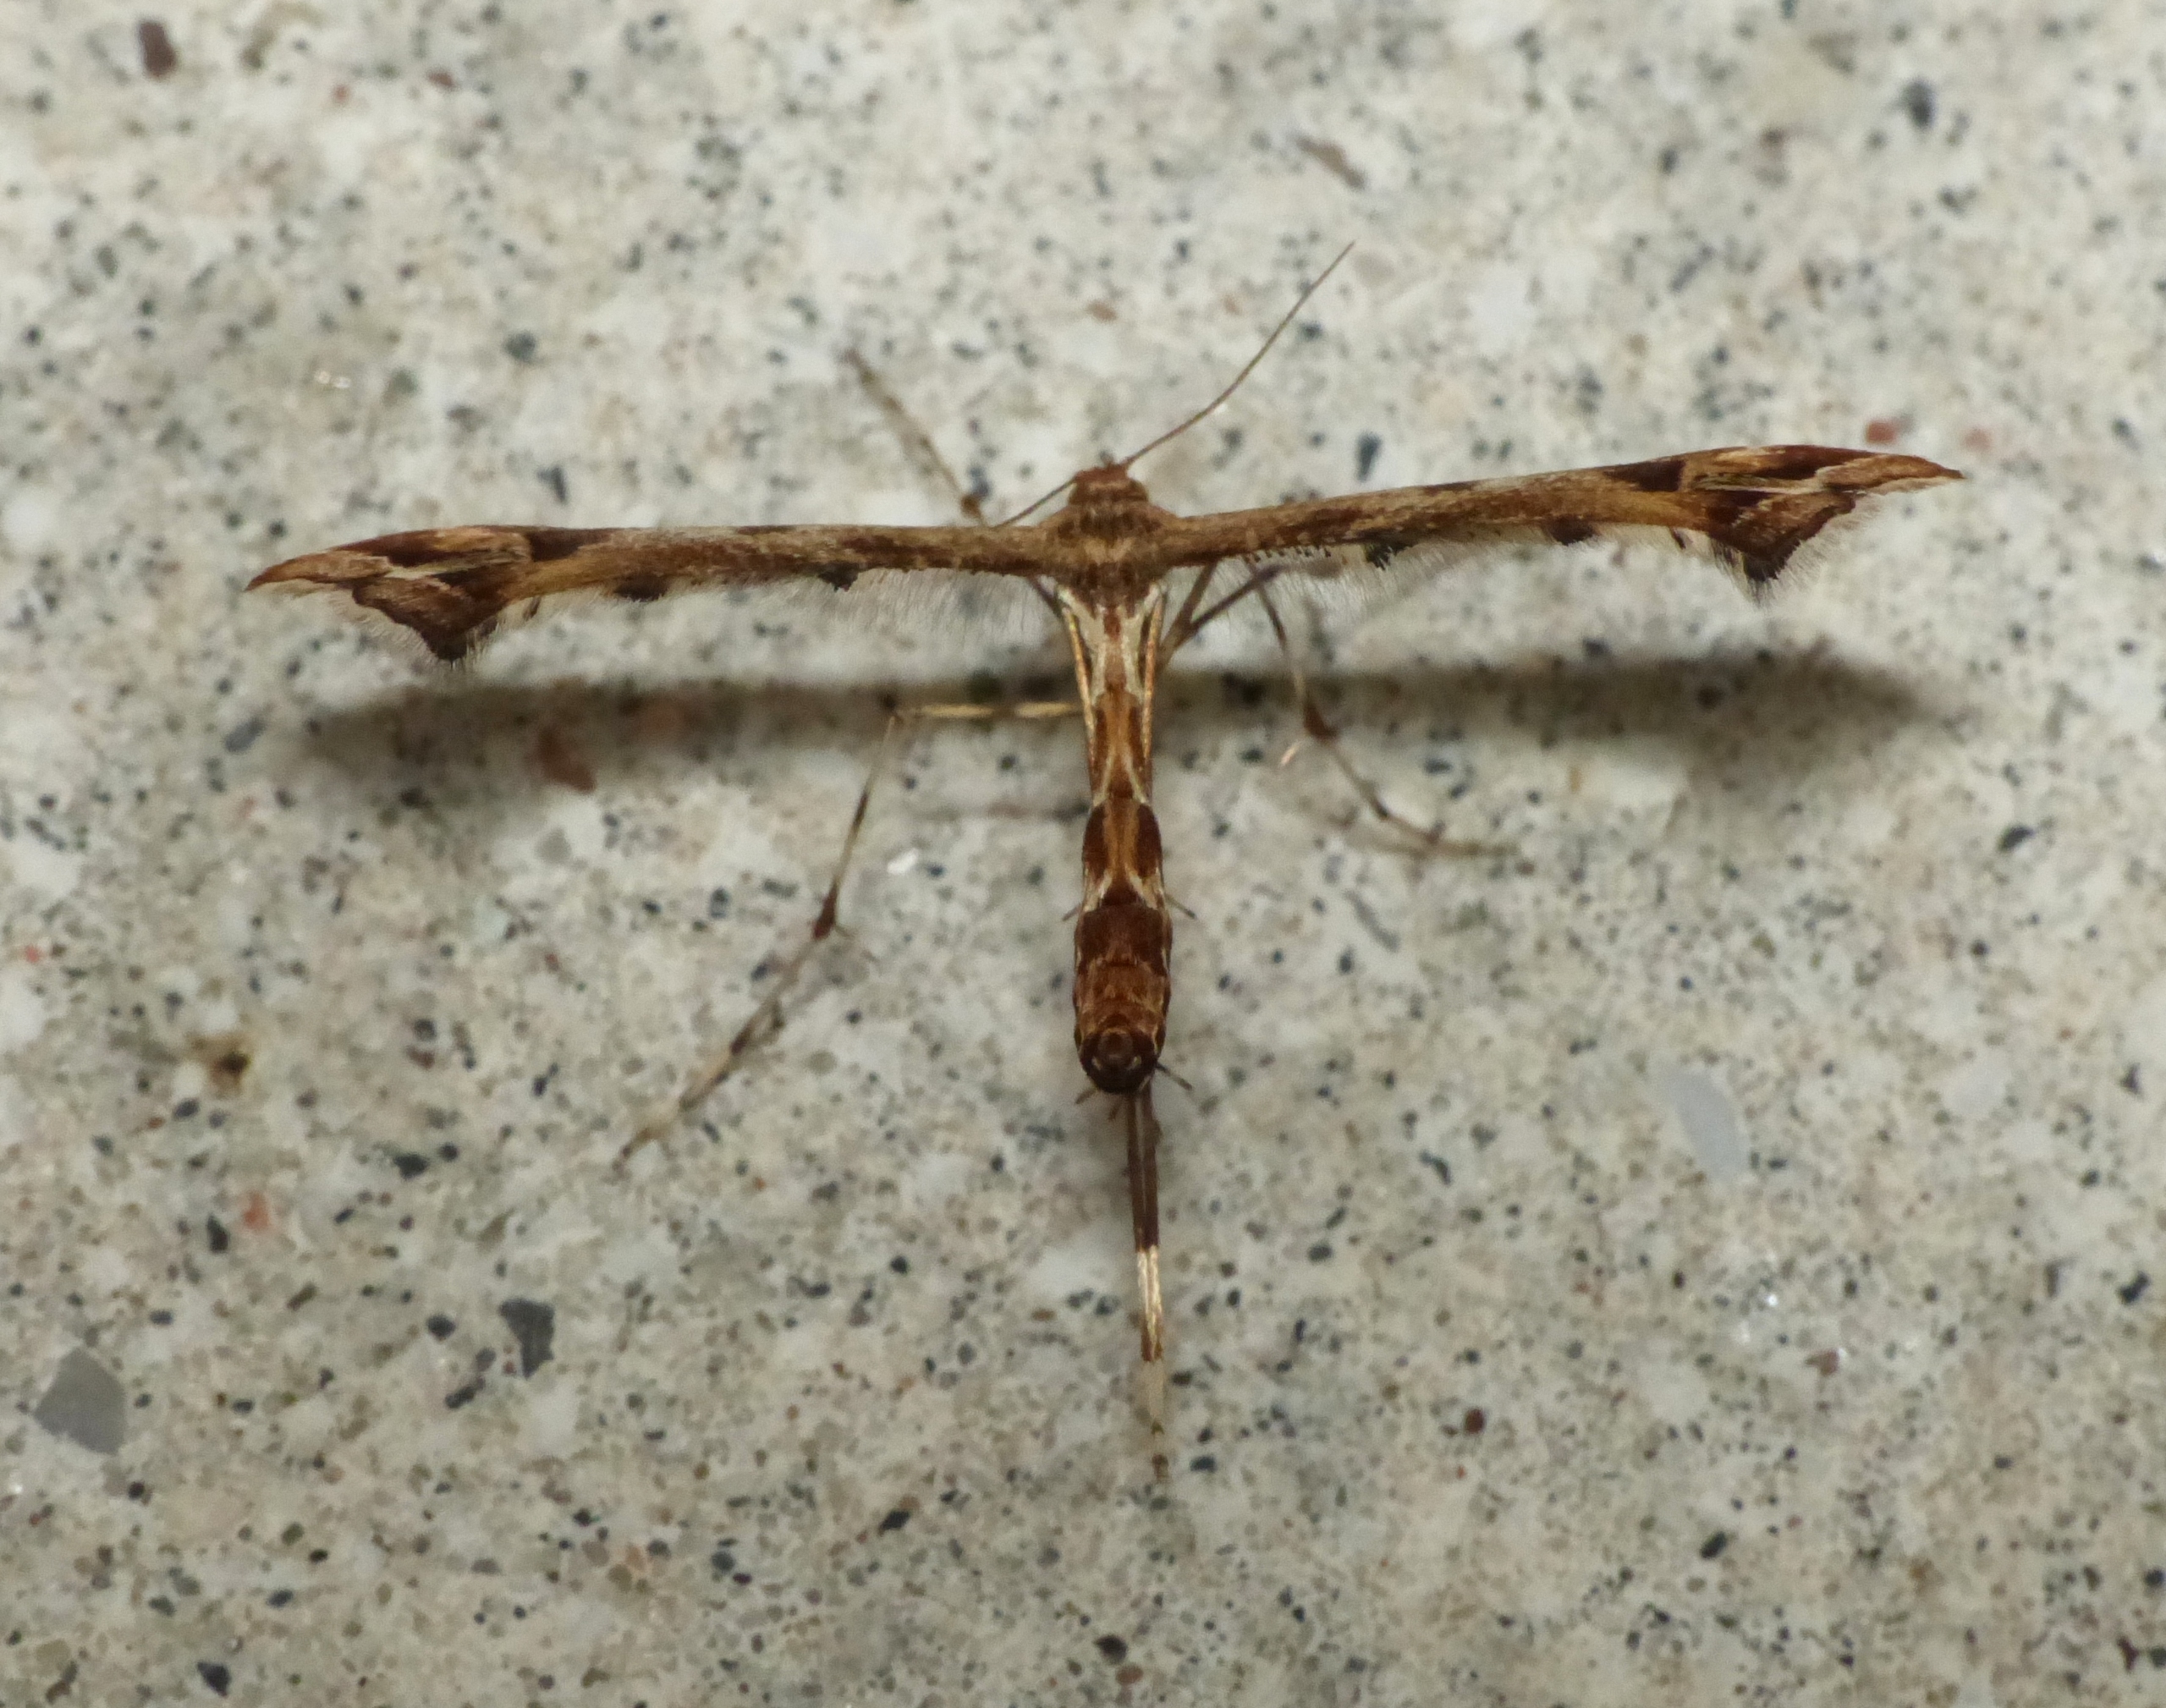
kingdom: Animalia
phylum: Arthropoda
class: Insecta
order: Lepidoptera
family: Pterophoridae
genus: Amblyptilia
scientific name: Amblyptilia acanthadactyla
